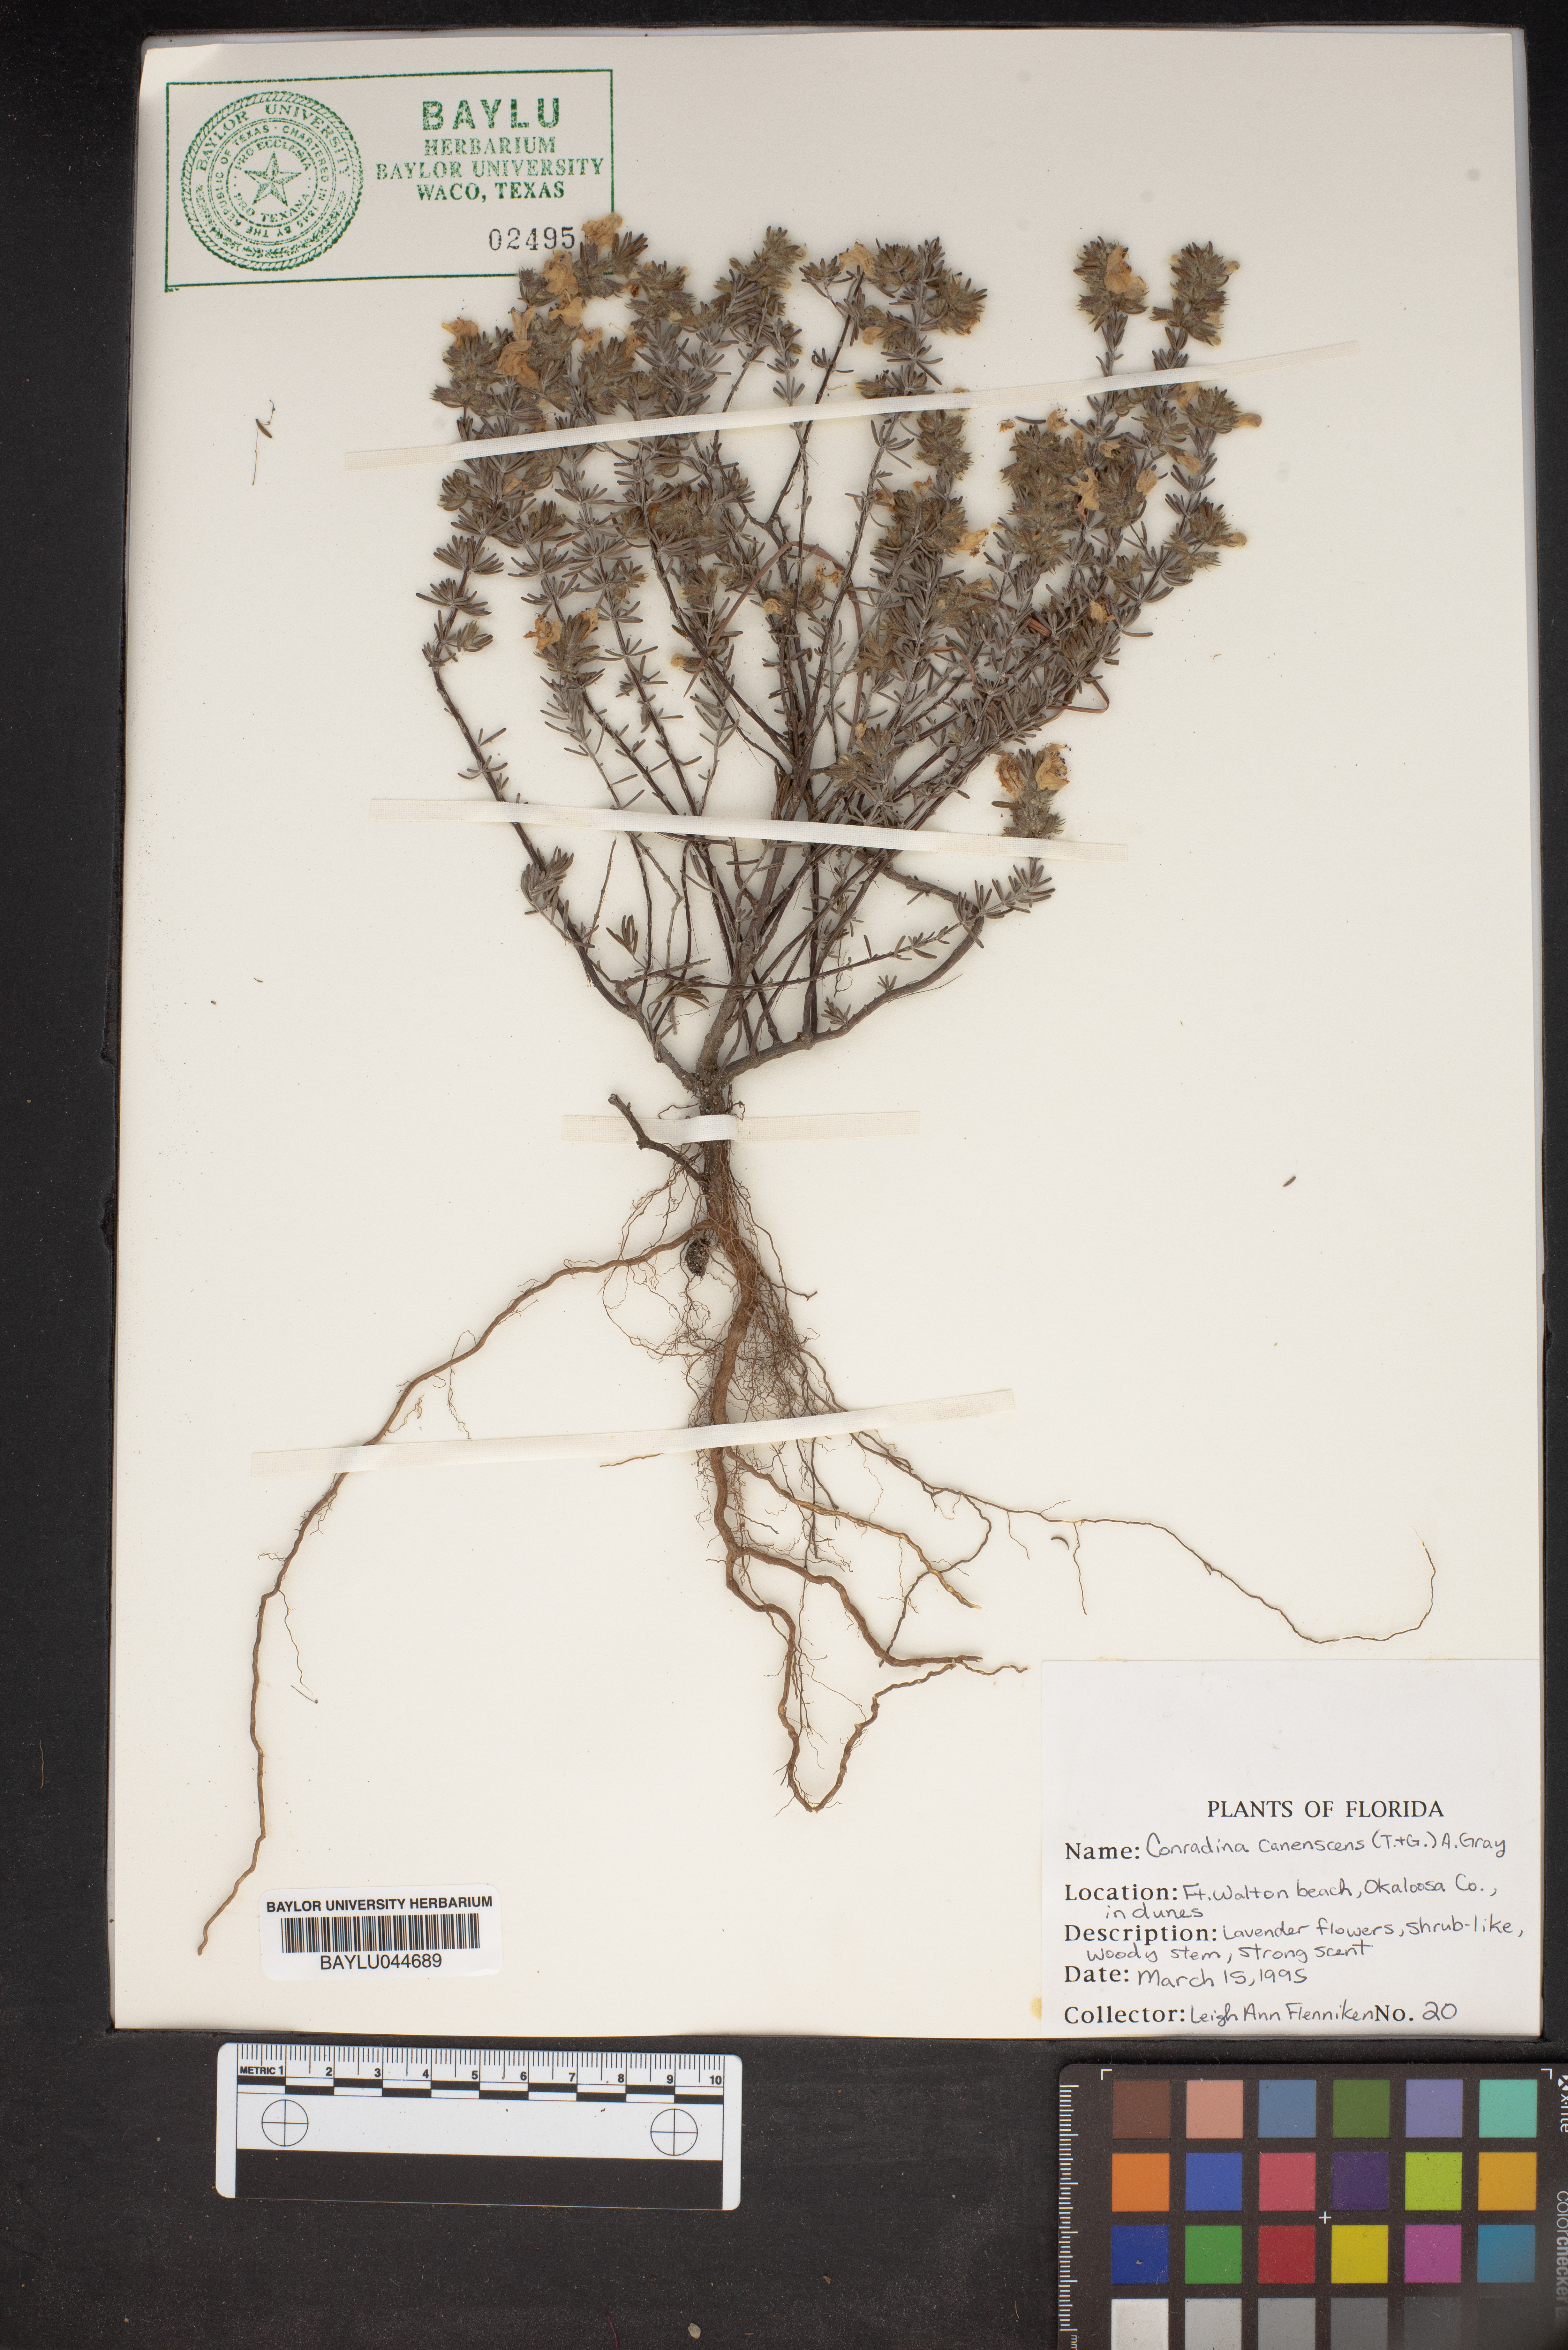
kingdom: Plantae
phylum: Tracheophyta
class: Magnoliopsida
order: Lamiales
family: Lamiaceae
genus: Conradina
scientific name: Conradina canescens
